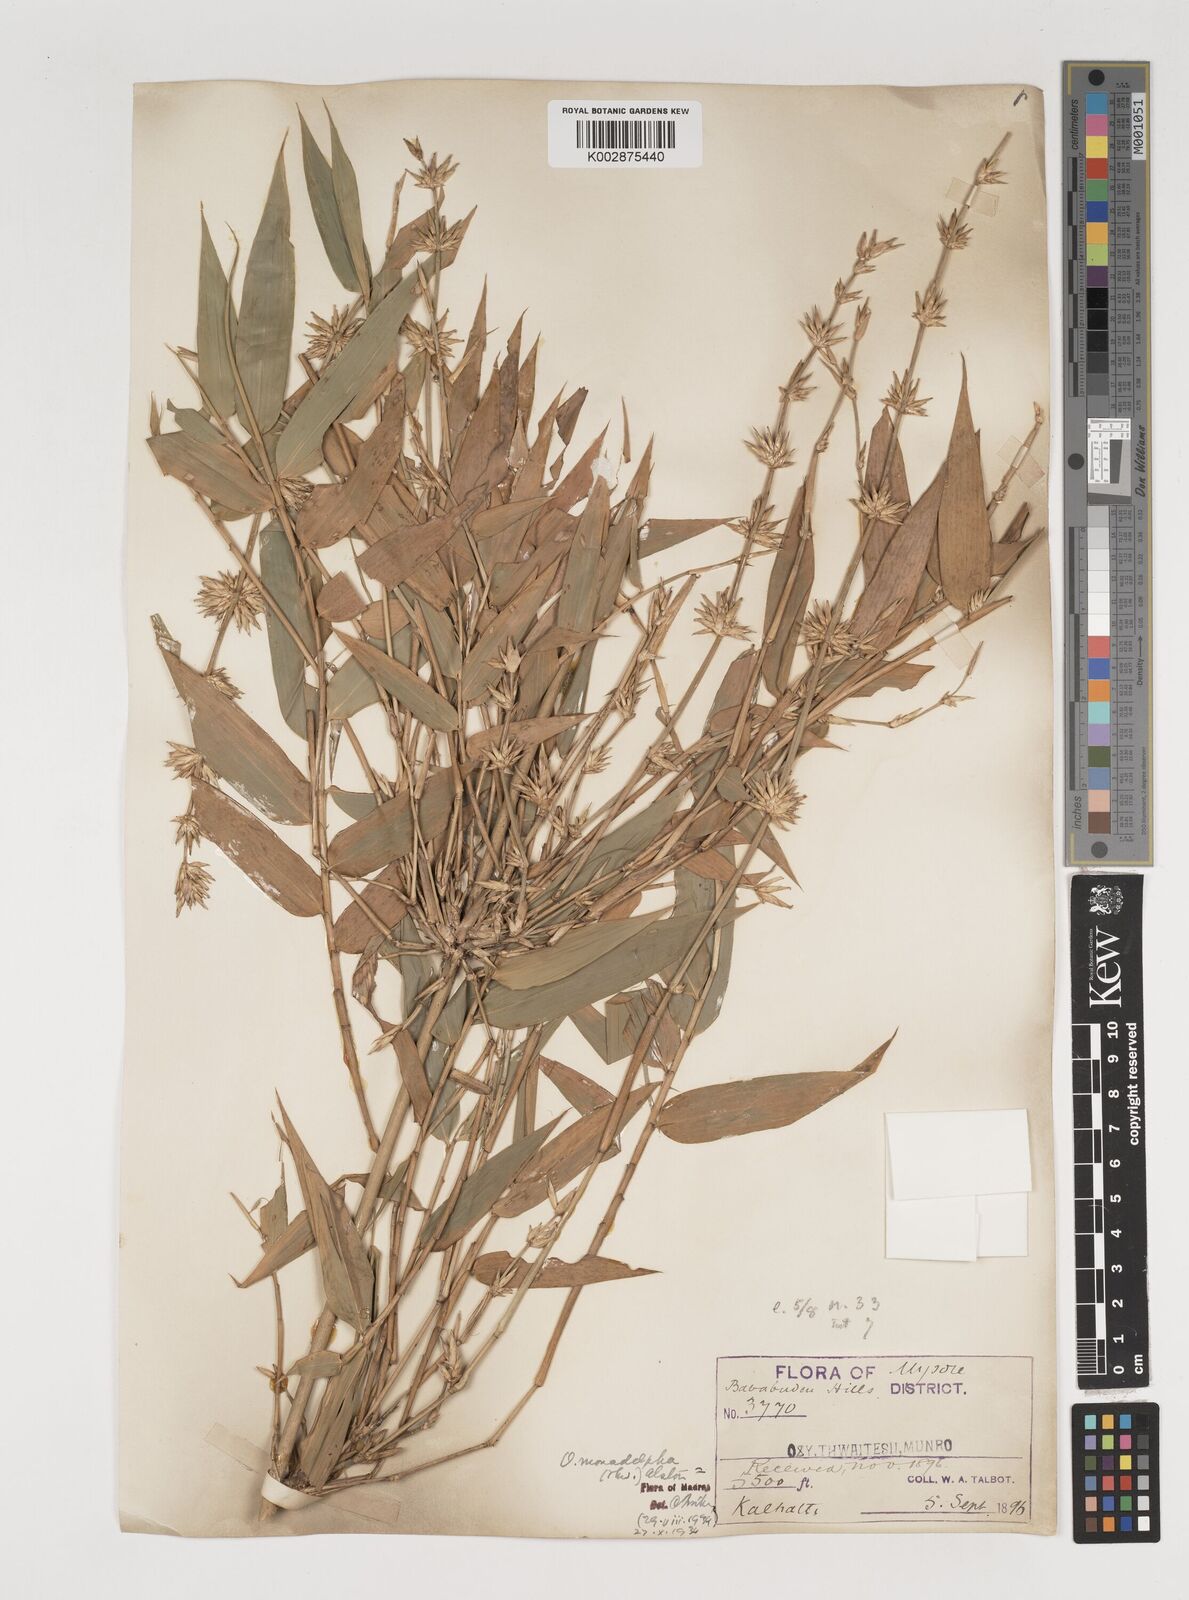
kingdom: Plantae
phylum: Tracheophyta
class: Liliopsida
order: Poales
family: Poaceae
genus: Pseudoxytenanthera
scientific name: Pseudoxytenanthera monadelpha
